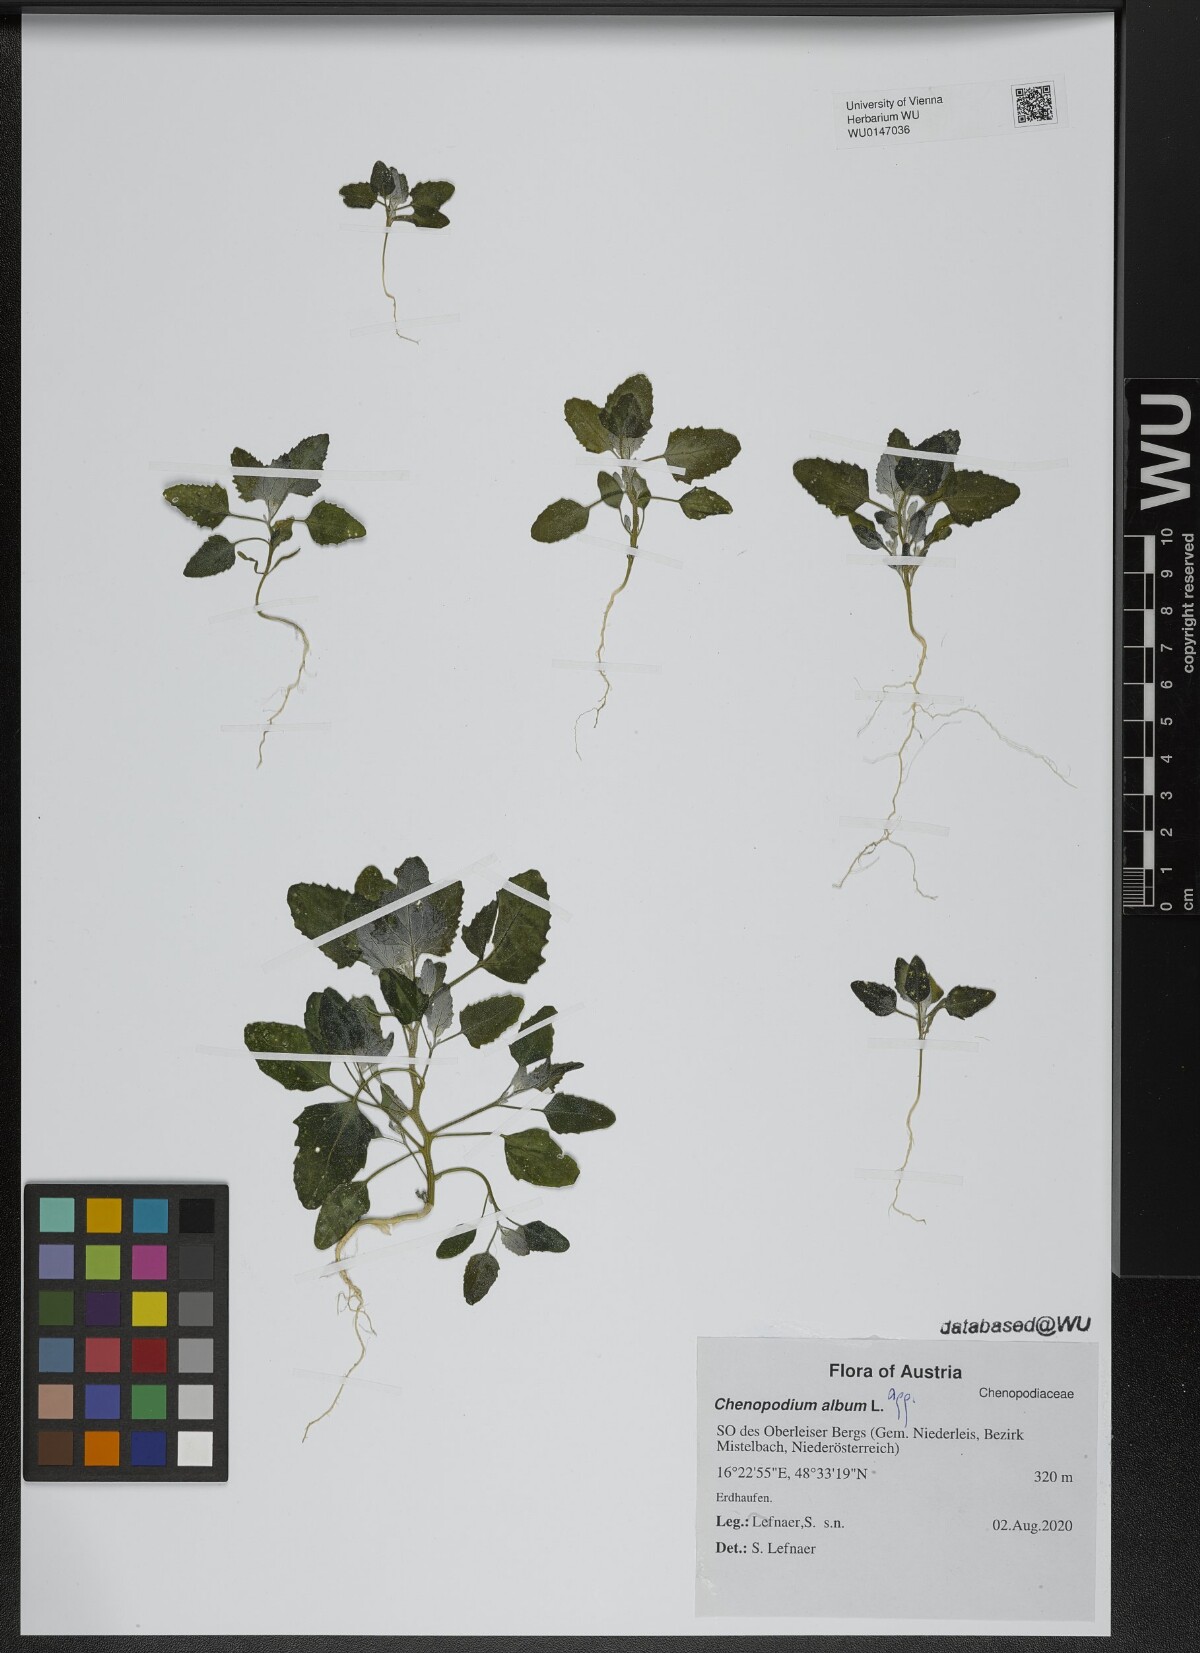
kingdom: Plantae
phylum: Tracheophyta
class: Magnoliopsida
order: Caryophyllales
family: Amaranthaceae
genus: Chenopodium
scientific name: Chenopodium album
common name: Fat-hen
